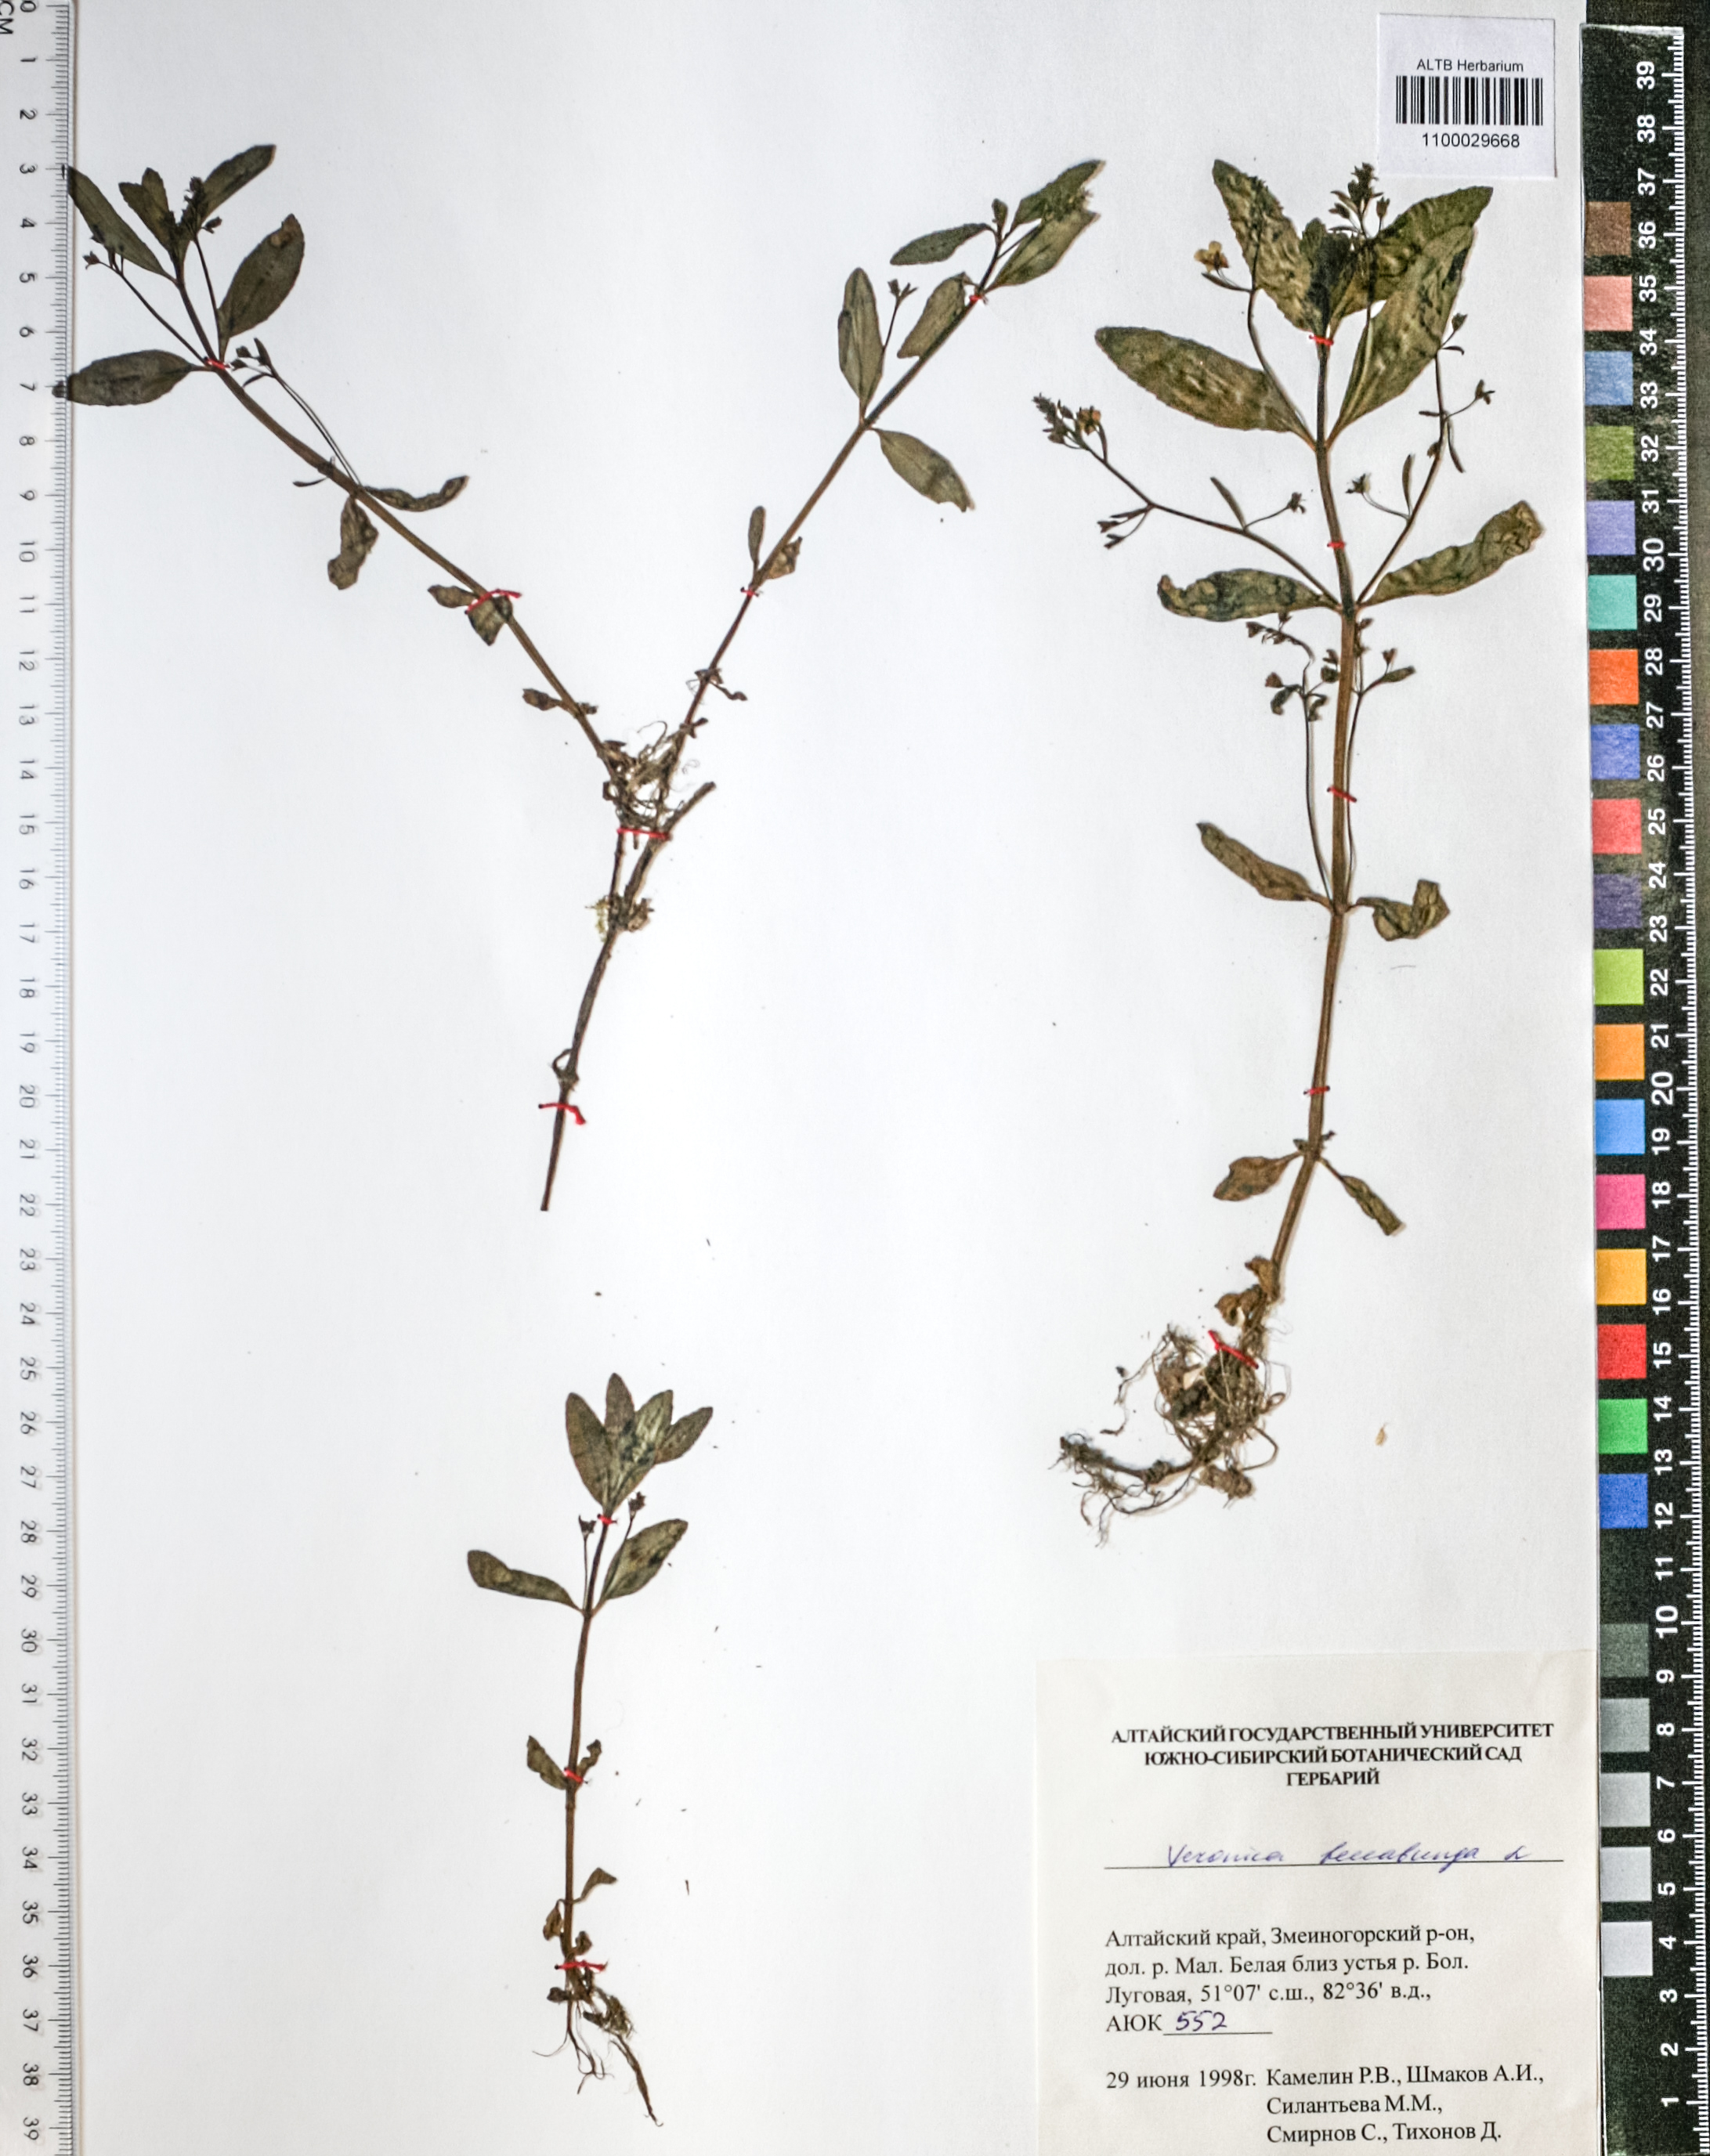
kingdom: Plantae
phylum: Tracheophyta
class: Magnoliopsida
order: Lamiales
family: Plantaginaceae
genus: Veronica
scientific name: Veronica beccabunga
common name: Brooklime
